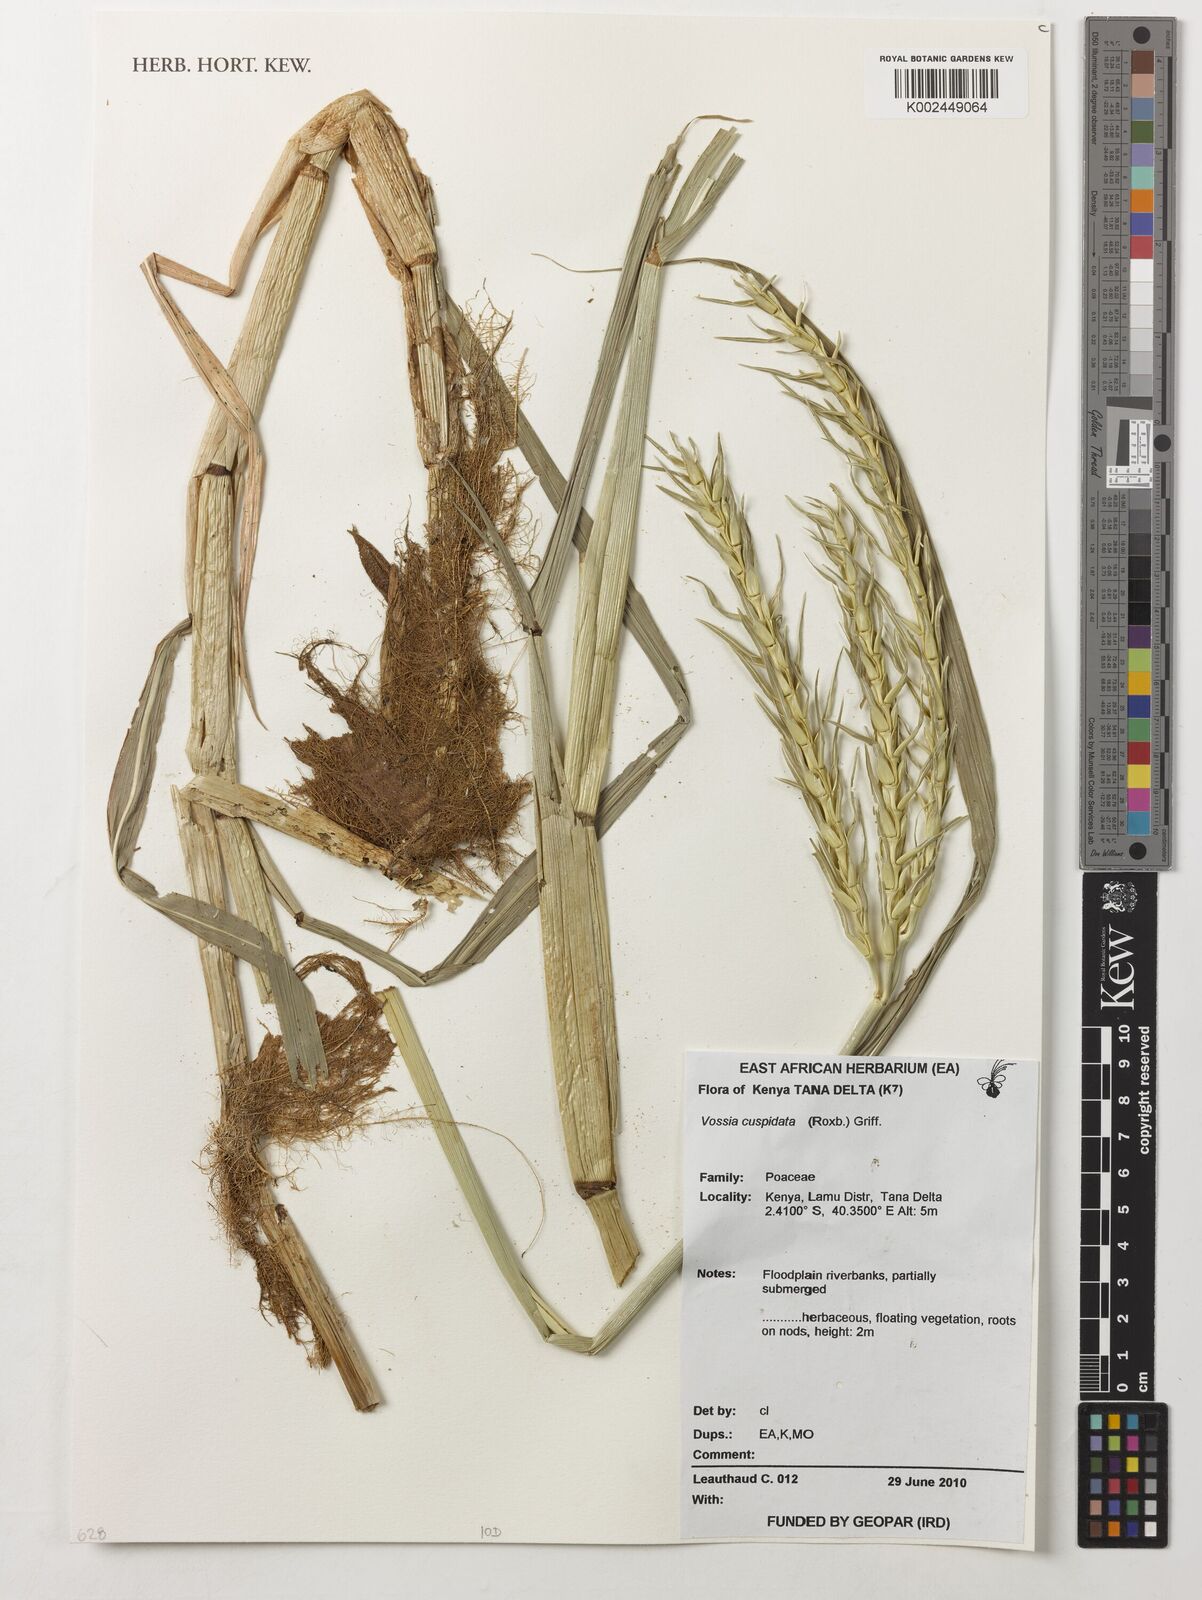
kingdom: Plantae
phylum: Tracheophyta
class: Liliopsida
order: Poales
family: Poaceae
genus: Vossia
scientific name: Vossia cuspidata
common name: Hippo grass
